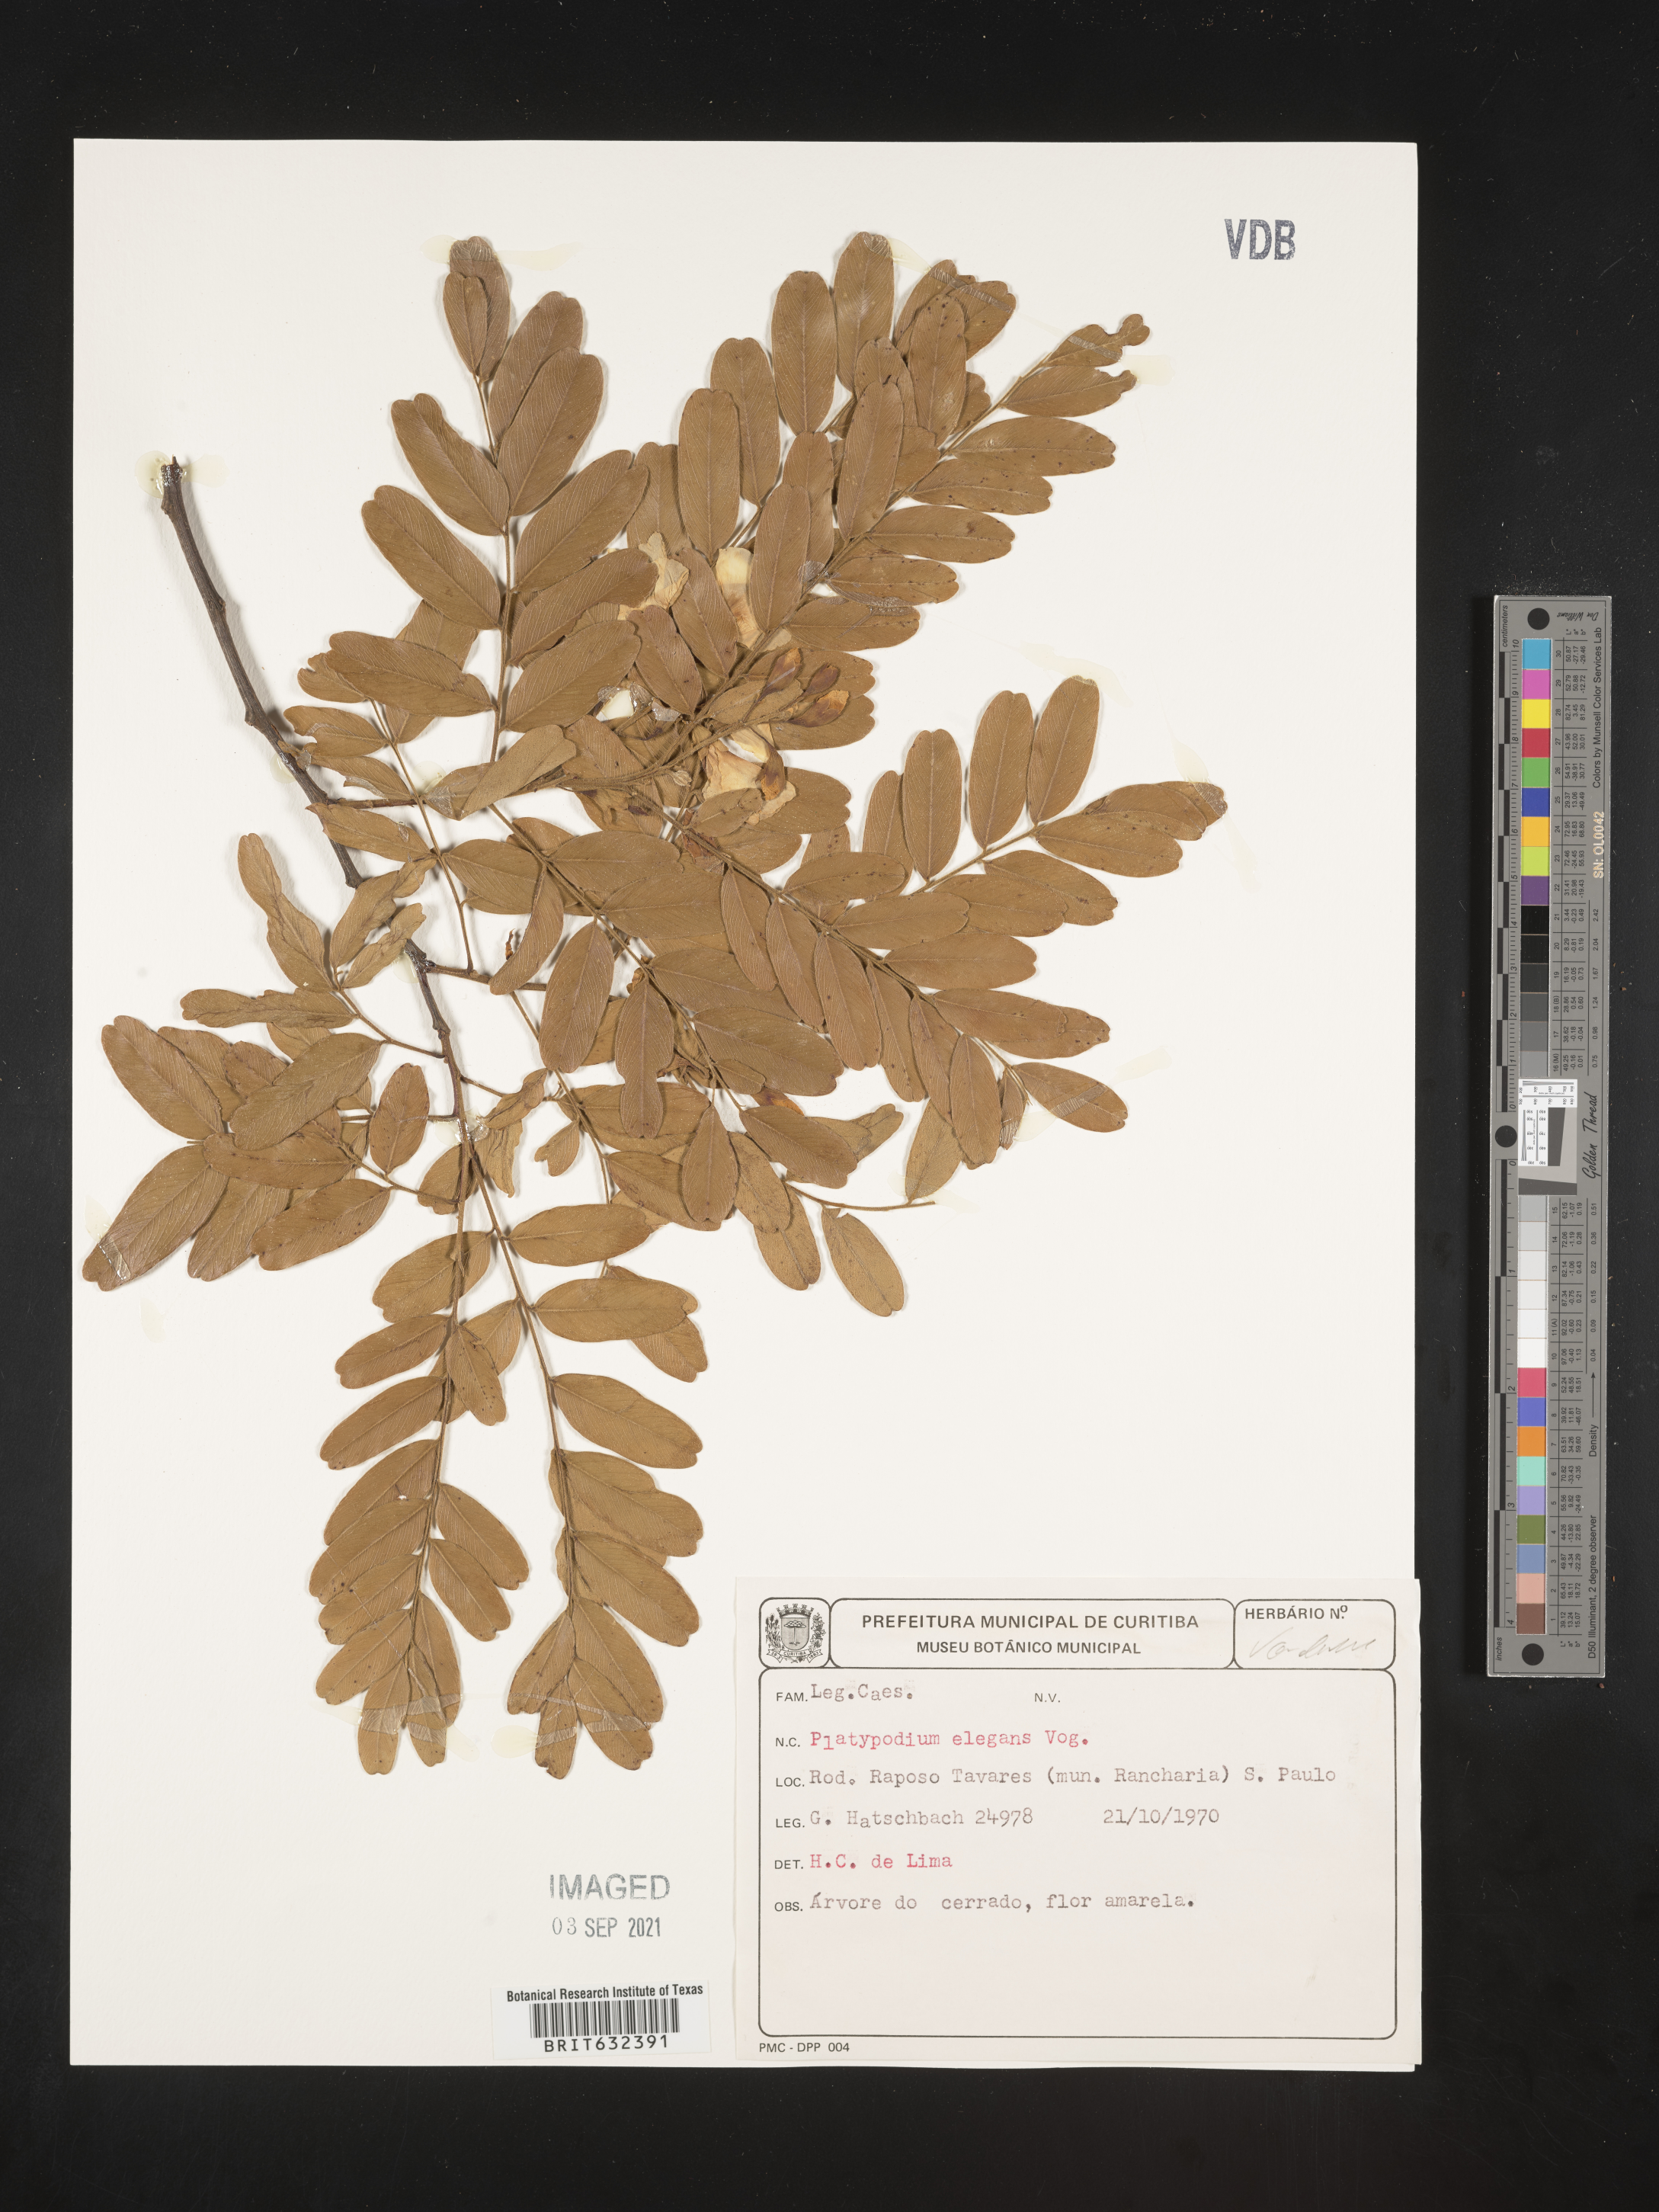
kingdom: Plantae
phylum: Tracheophyta
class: Magnoliopsida
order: Fabales
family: Fabaceae
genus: Platypodium
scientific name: Platypodium
